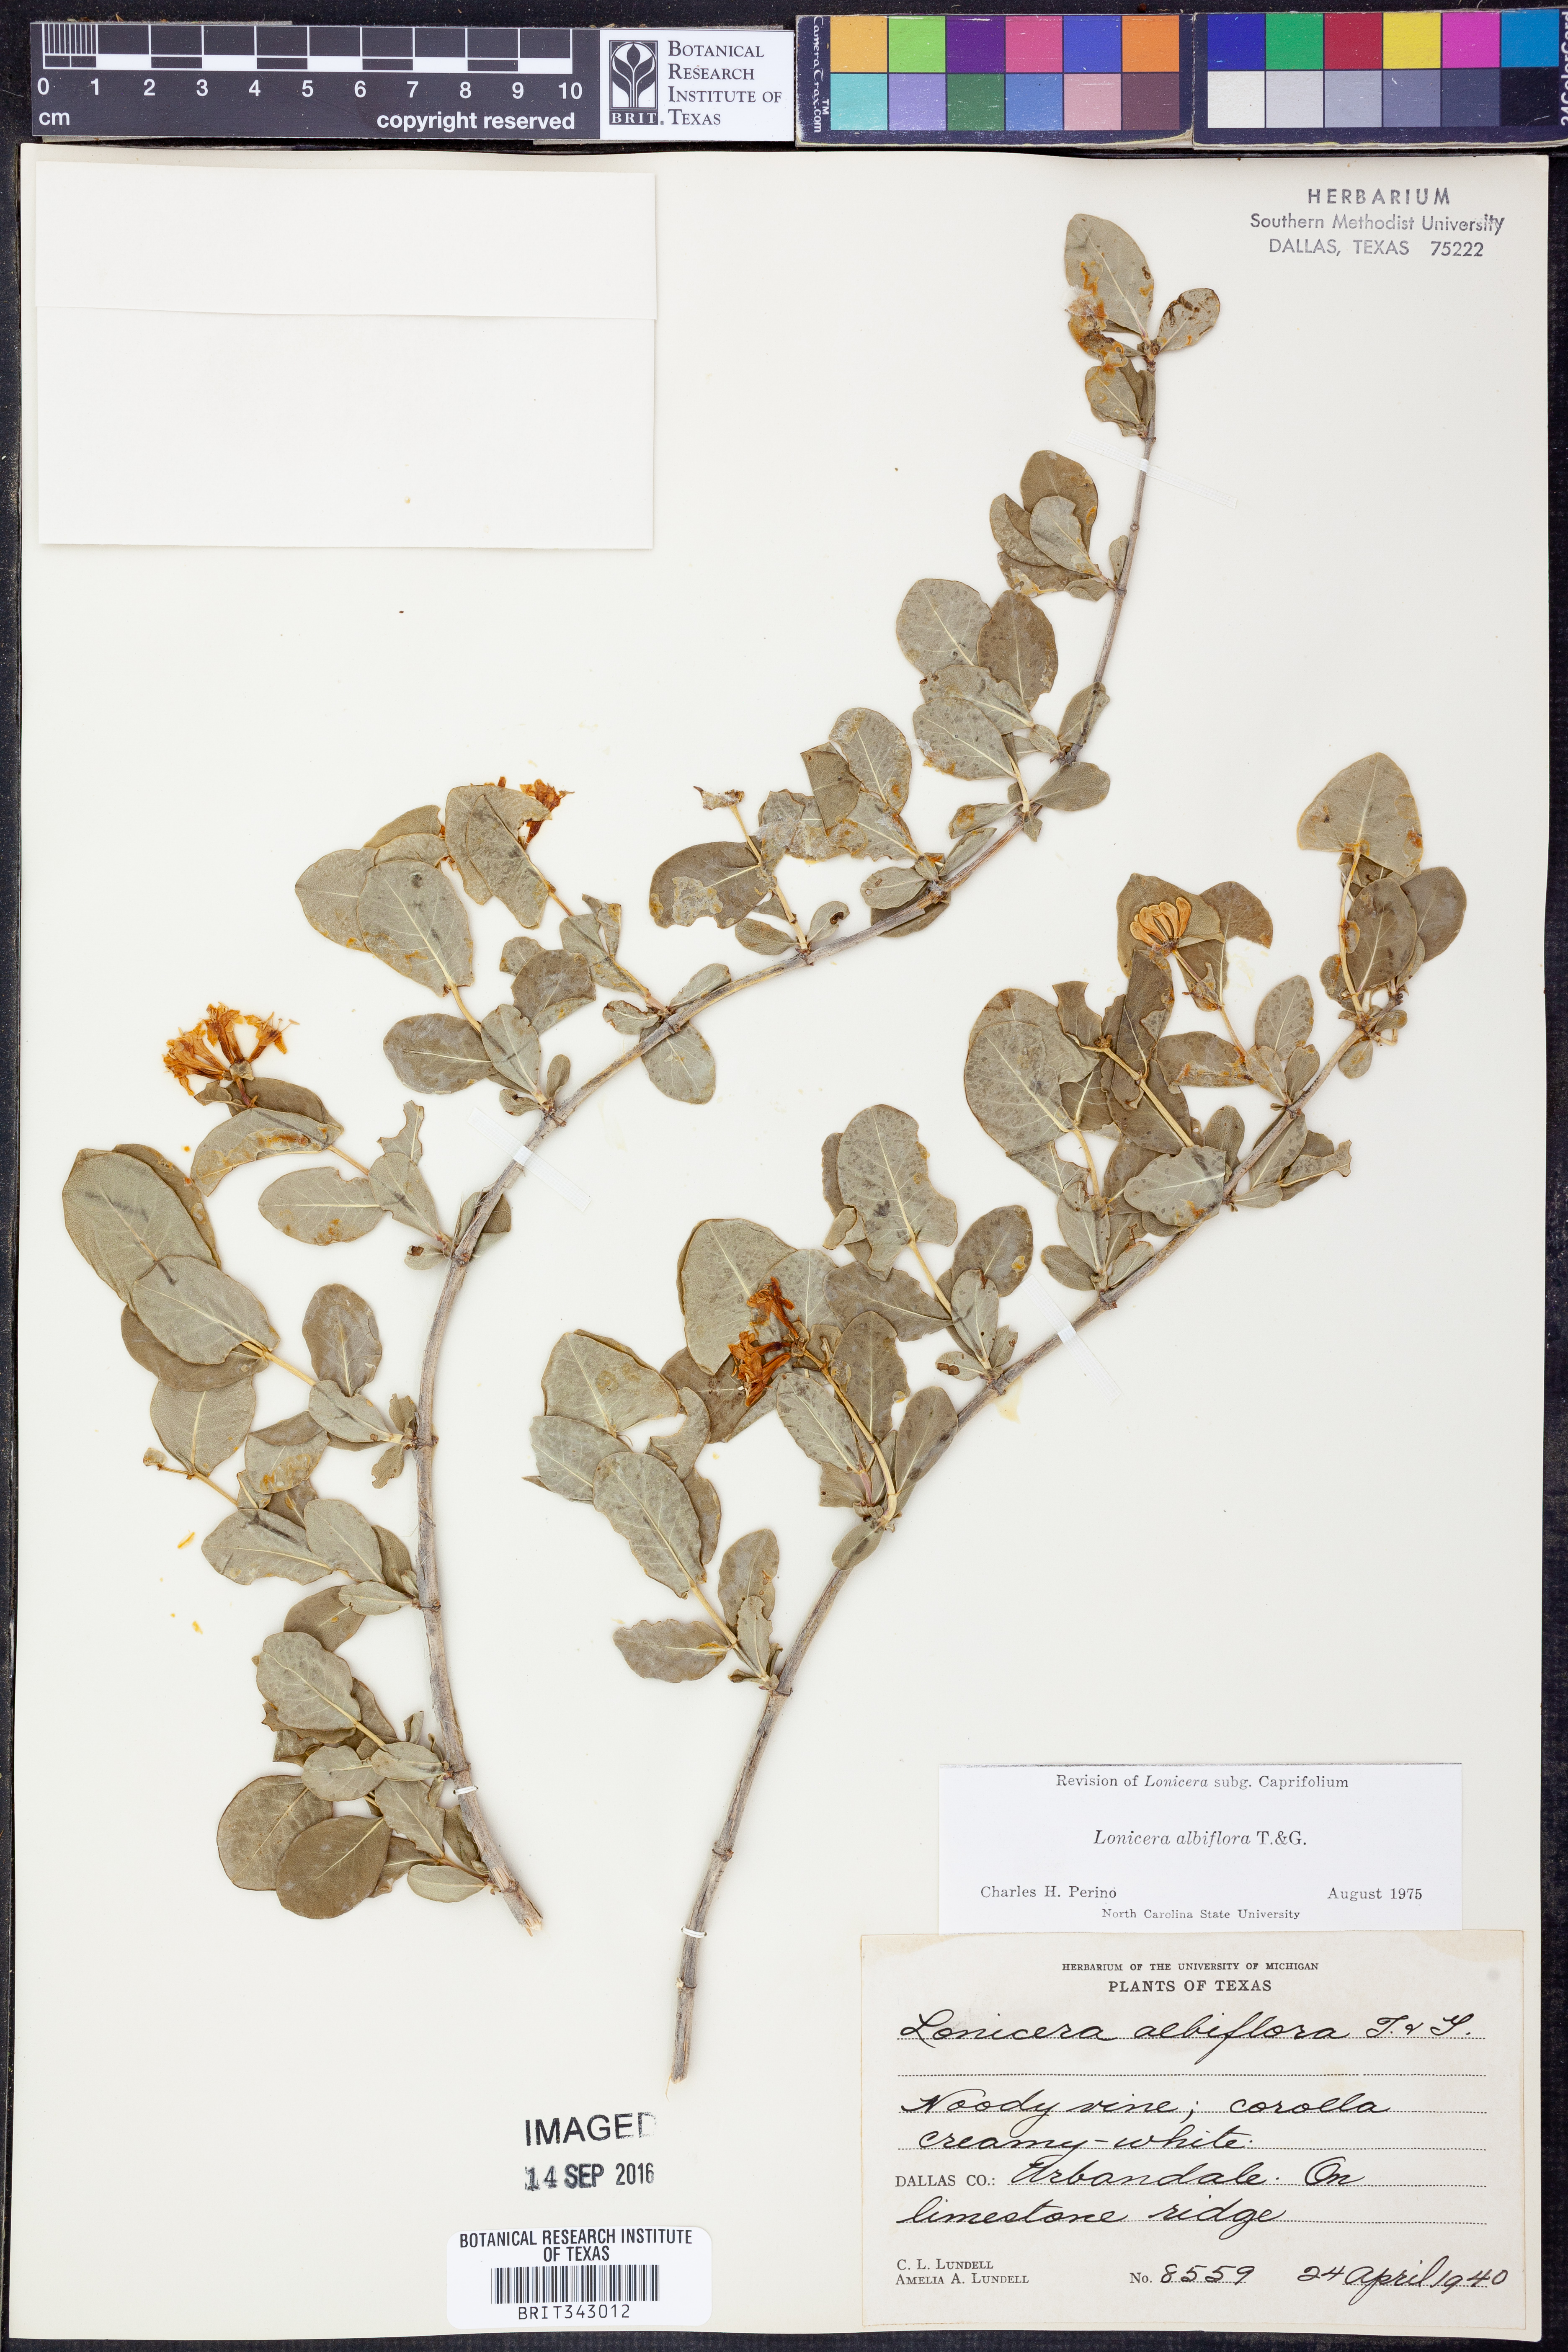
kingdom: Plantae
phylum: Tracheophyta
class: Magnoliopsida
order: Dipsacales
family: Caprifoliaceae
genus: Lonicera
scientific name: Lonicera albiflora
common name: White honeysuckle
